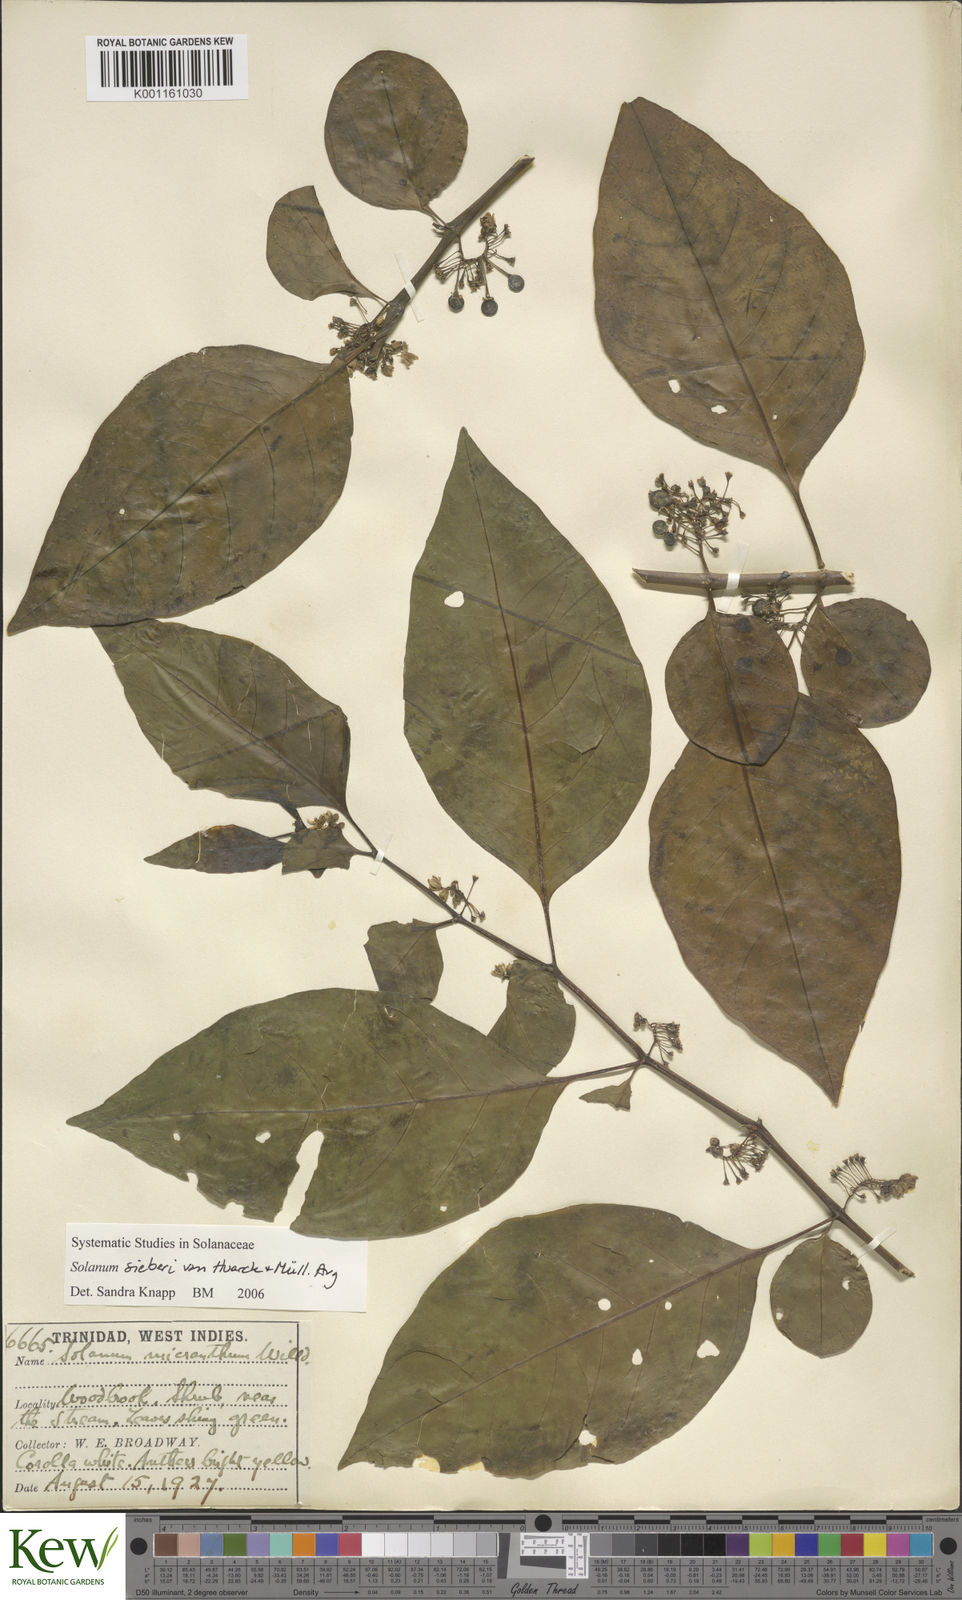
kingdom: Plantae
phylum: Tracheophyta
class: Magnoliopsida
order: Solanales
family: Solanaceae
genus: Solanum
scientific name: Solanum sieberi
